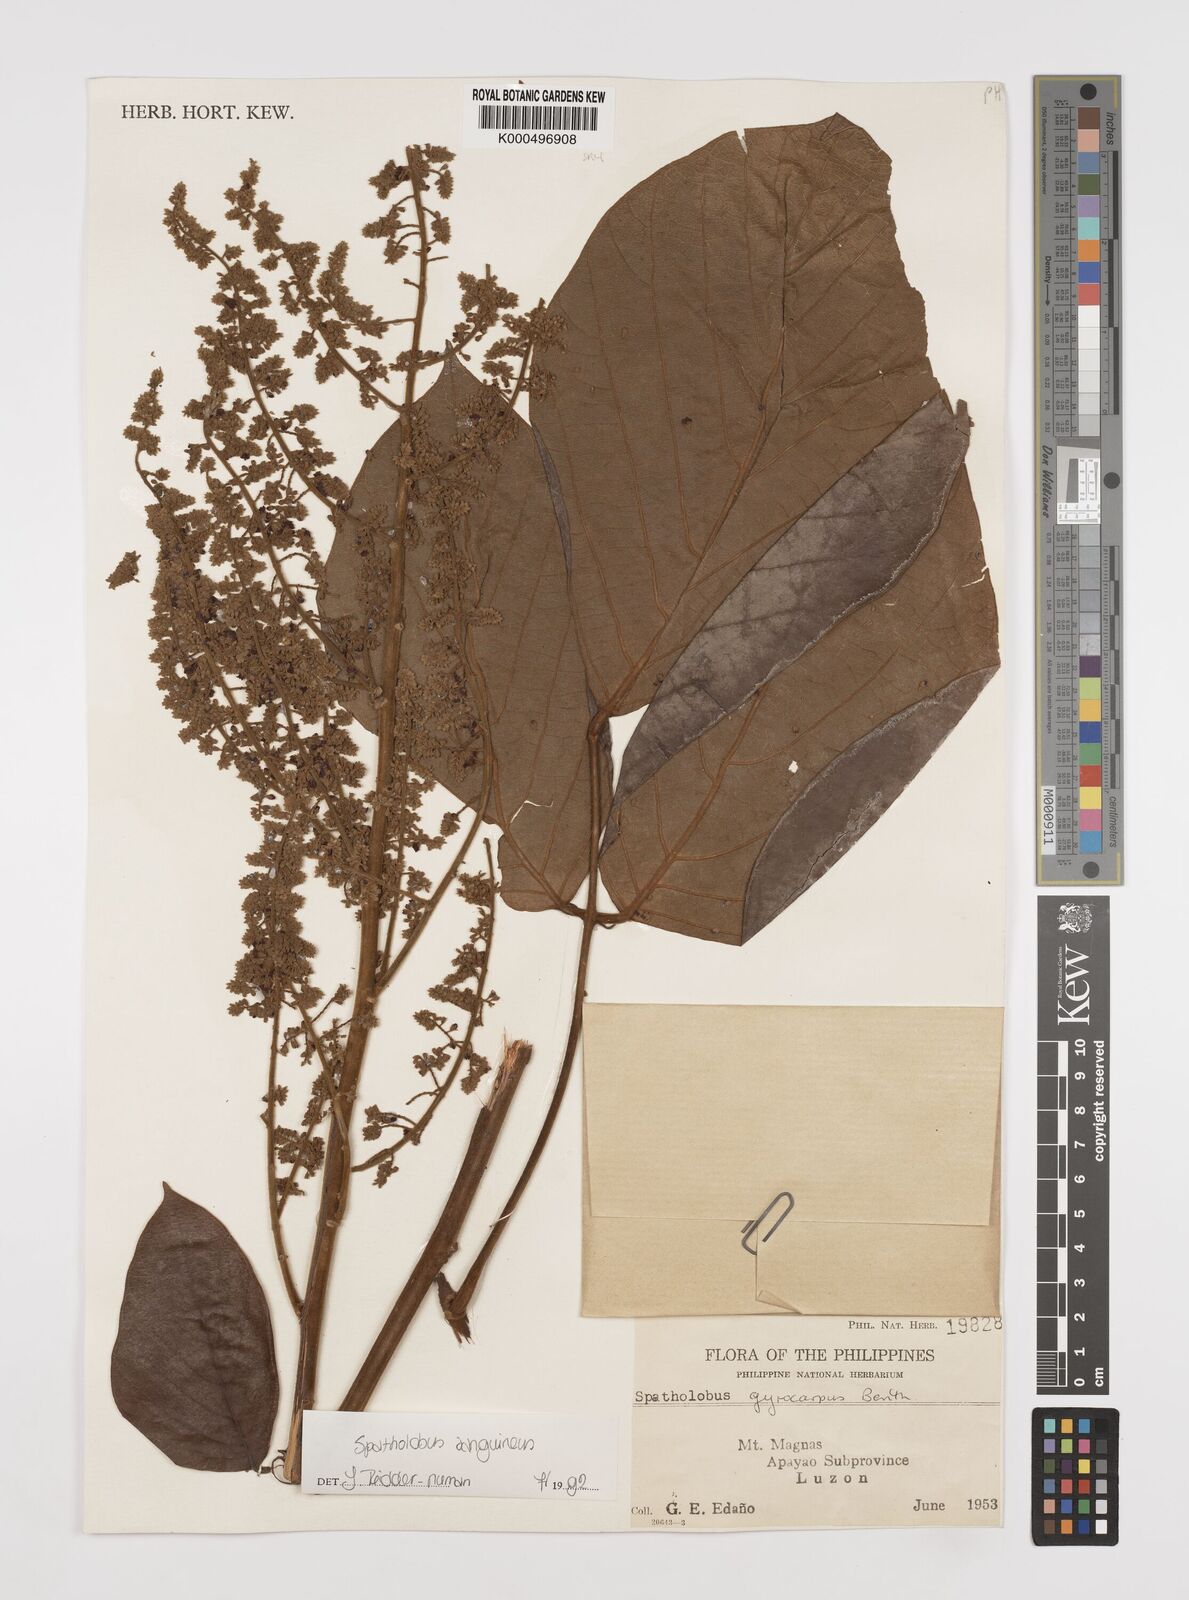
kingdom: Plantae
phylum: Tracheophyta
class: Magnoliopsida
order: Fabales
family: Fabaceae
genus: Spatholobus
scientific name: Spatholobus
